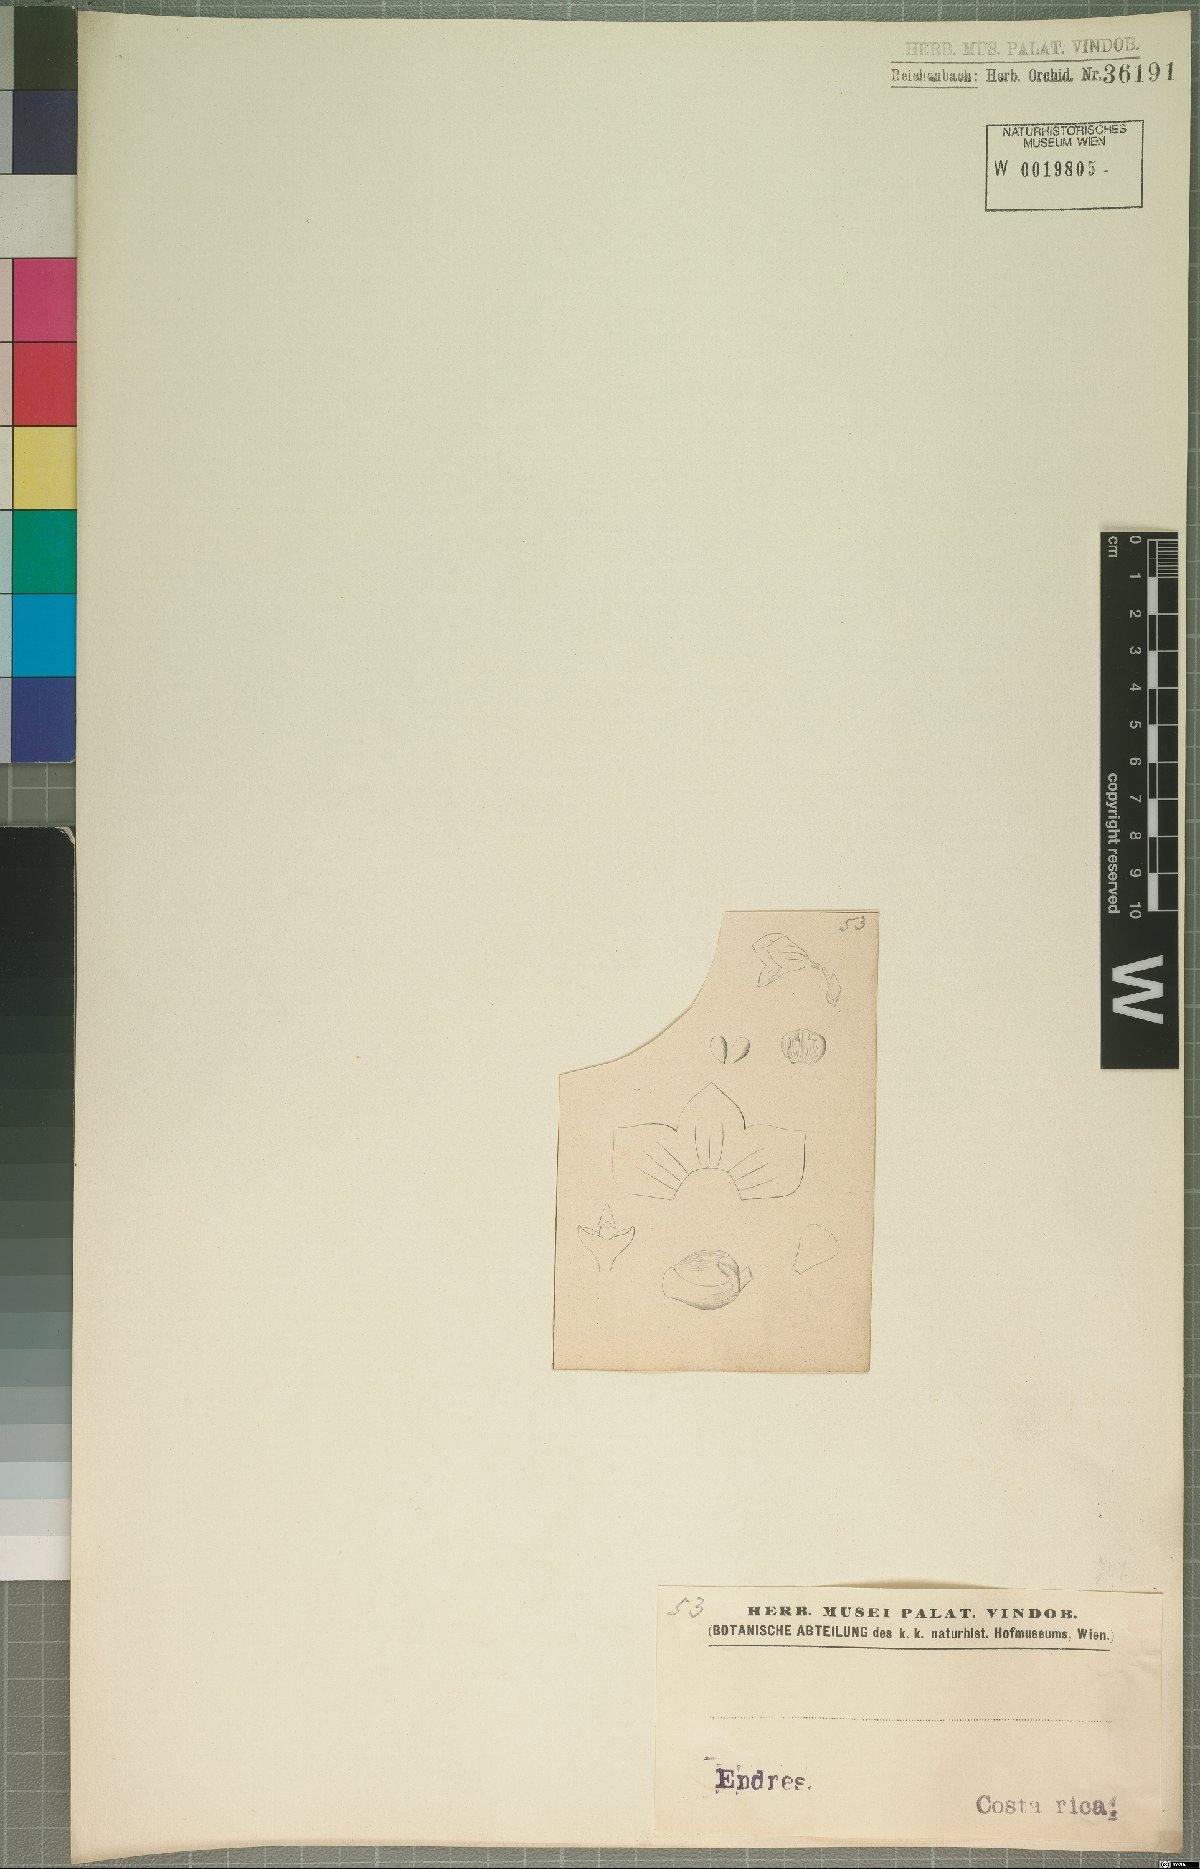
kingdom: Plantae
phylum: Tracheophyta
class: Liliopsida
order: Asparagales
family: Orchidaceae
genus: Stelis
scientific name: Stelis
